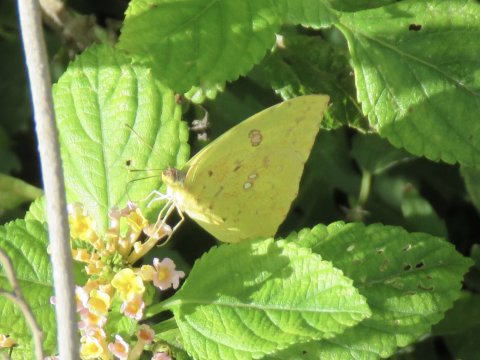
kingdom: Animalia
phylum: Arthropoda
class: Insecta
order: Lepidoptera
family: Pieridae
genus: Phoebis
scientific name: Phoebis sennae
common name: Cloudless Sulphur
